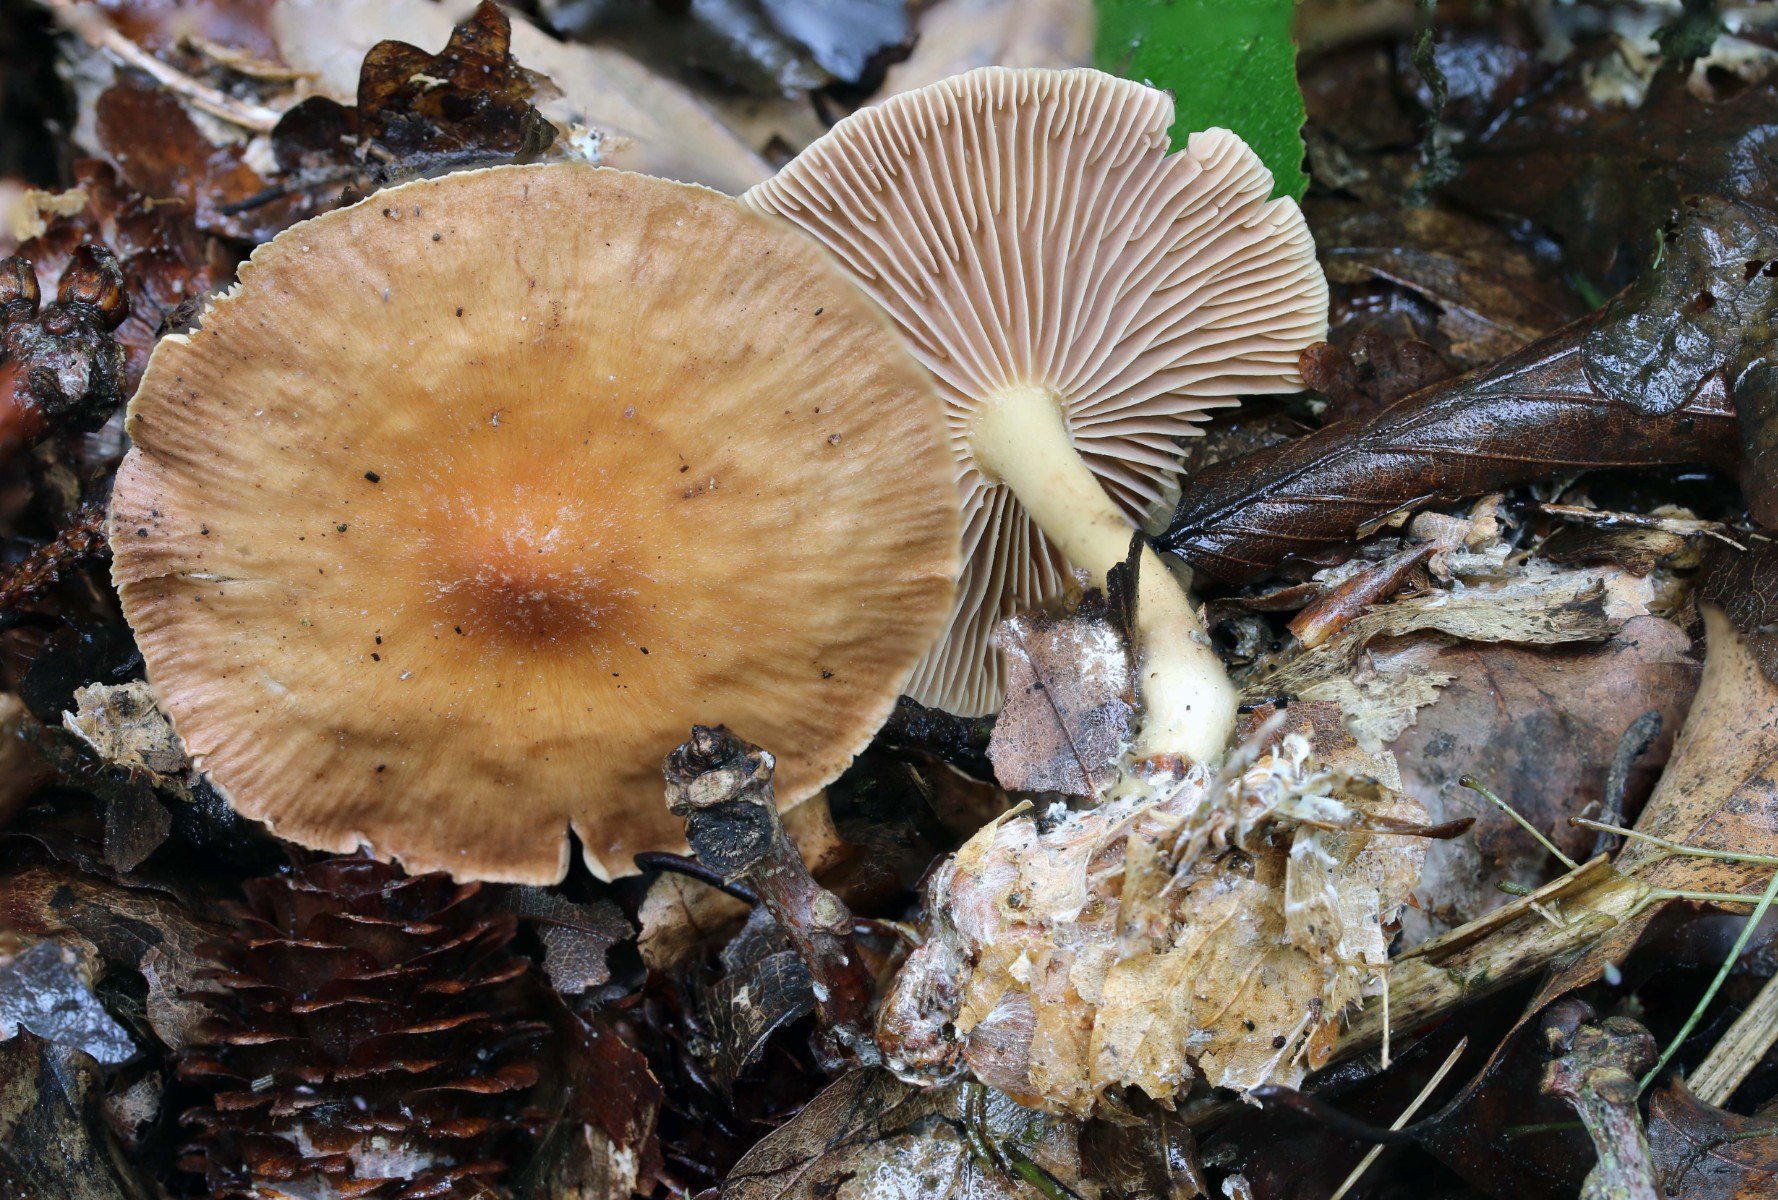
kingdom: Fungi
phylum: Basidiomycota
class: Agaricomycetes
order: Agaricales
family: Omphalotaceae
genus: Collybiopsis
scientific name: Collybiopsis peronata
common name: bestøvlet fladhat
